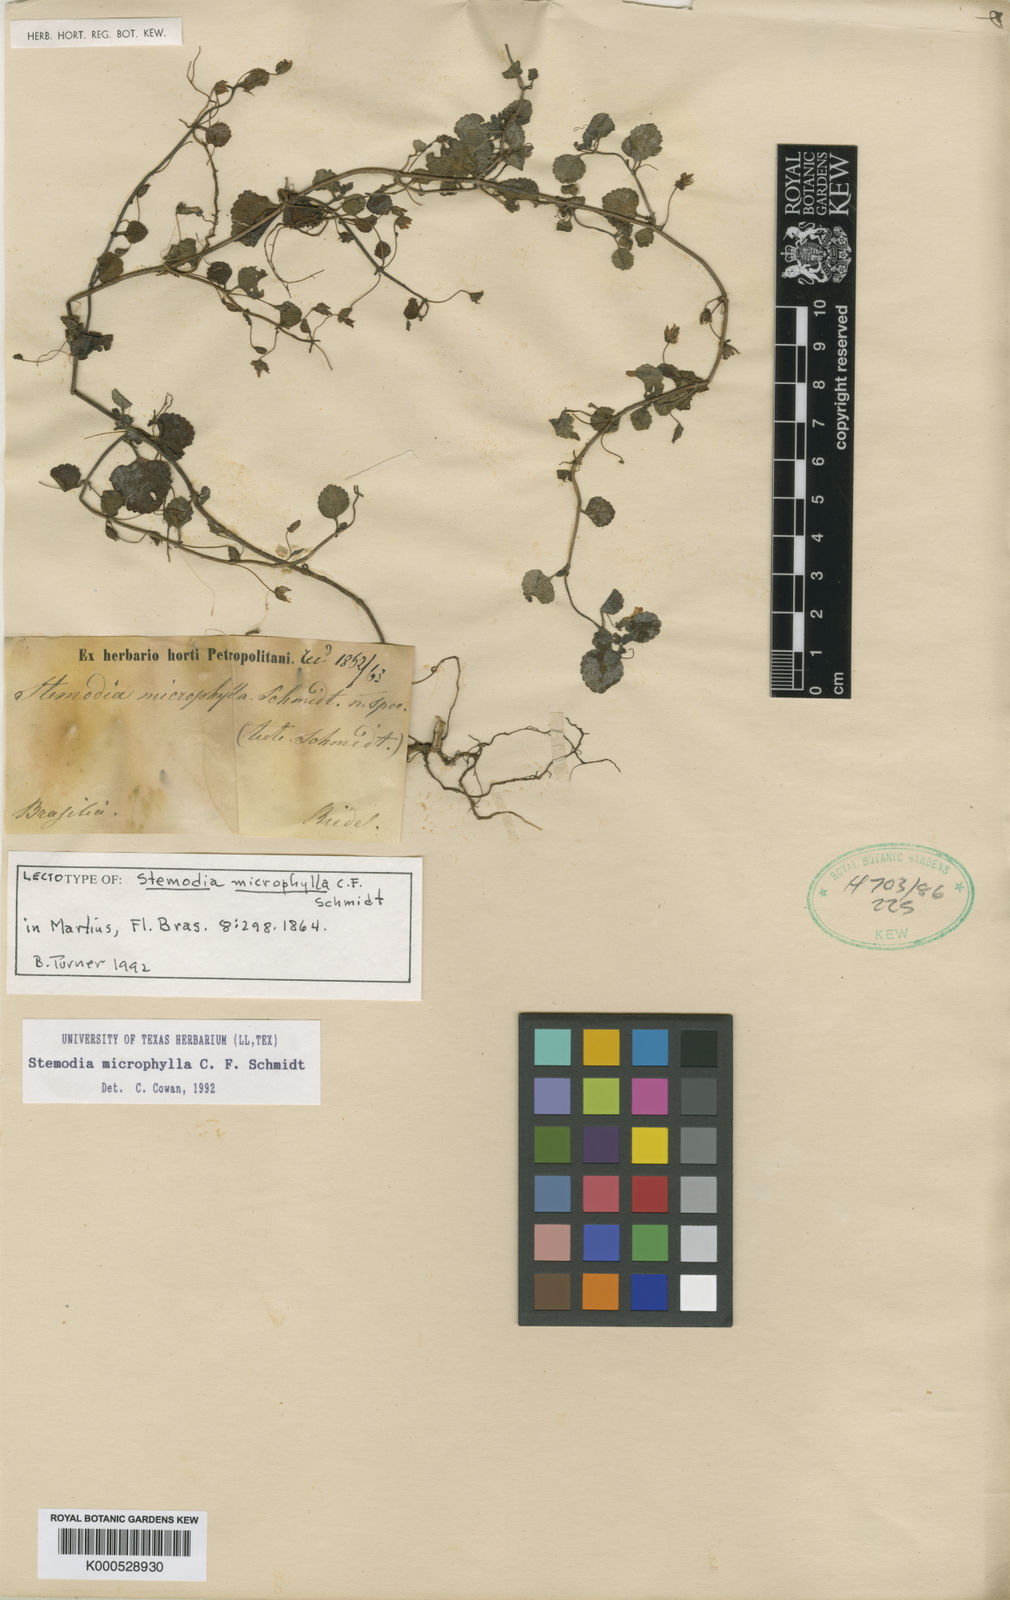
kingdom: Plantae
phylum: Tracheophyta
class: Magnoliopsida
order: Lamiales
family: Plantaginaceae
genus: Umbraria
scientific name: Umbraria microphylla
